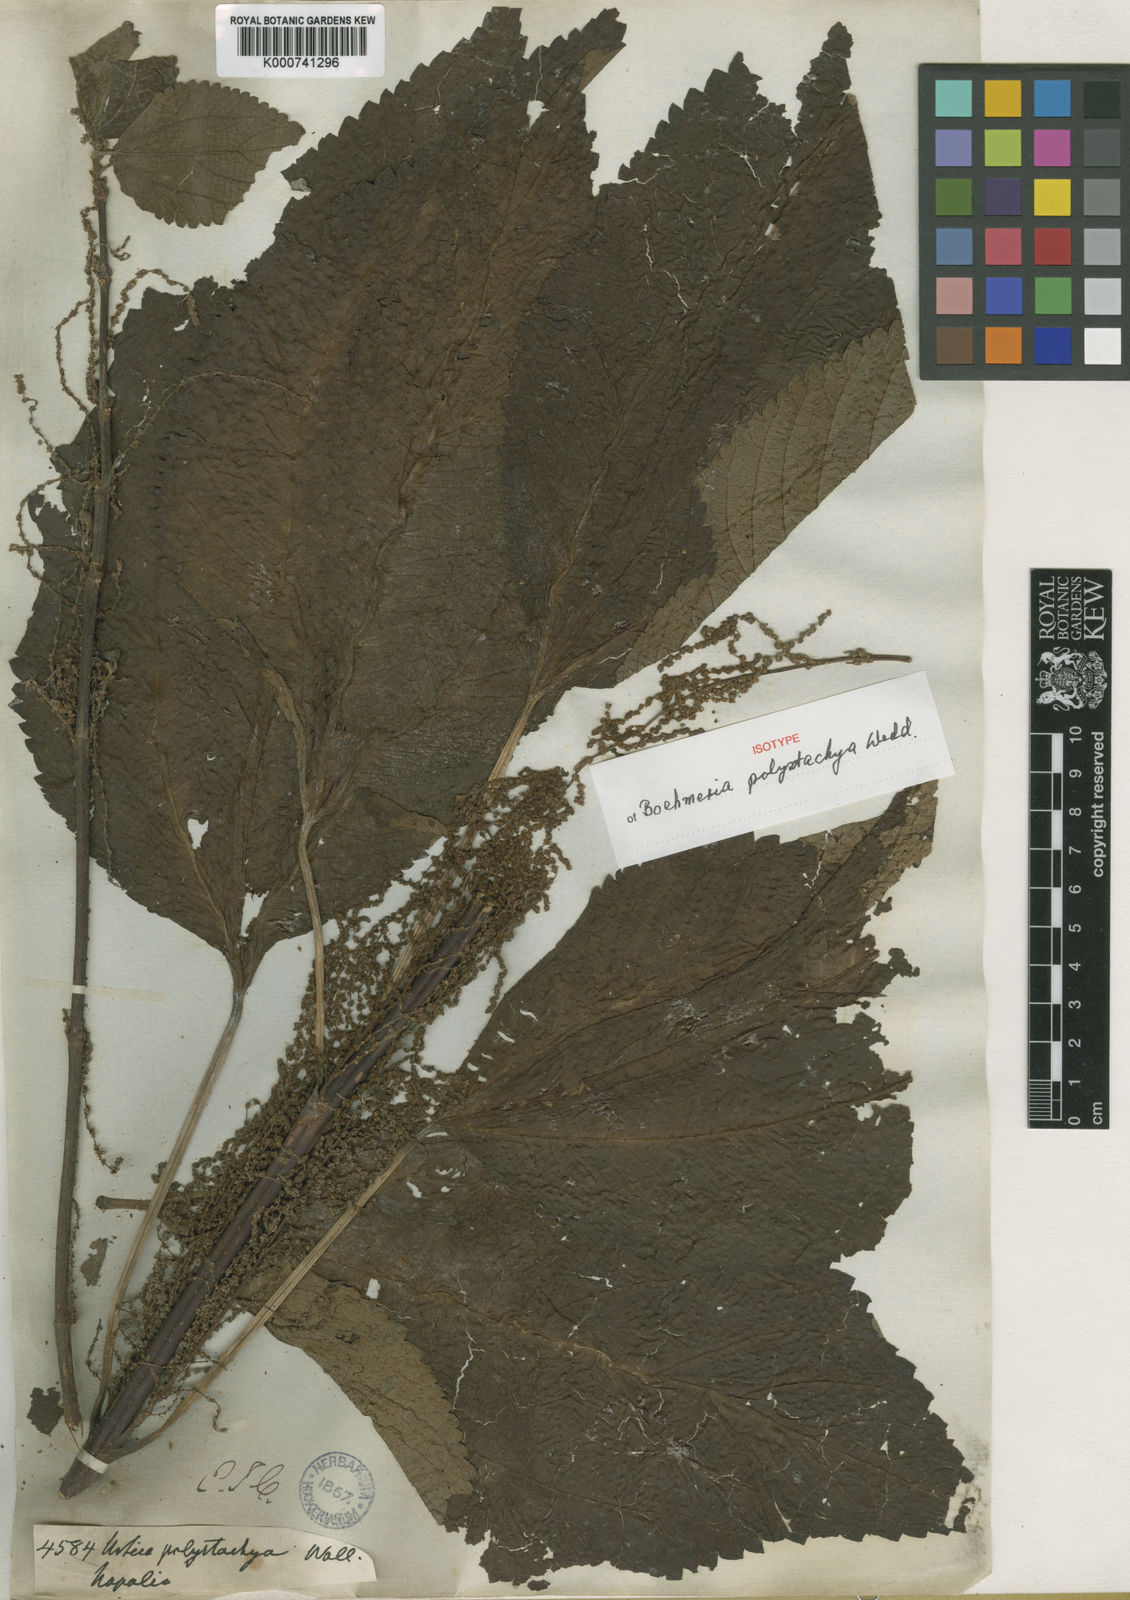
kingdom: Plantae
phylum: Tracheophyta
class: Magnoliopsida
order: Rosales
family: Urticaceae
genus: Boehmeria
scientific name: Boehmeria polystachya
